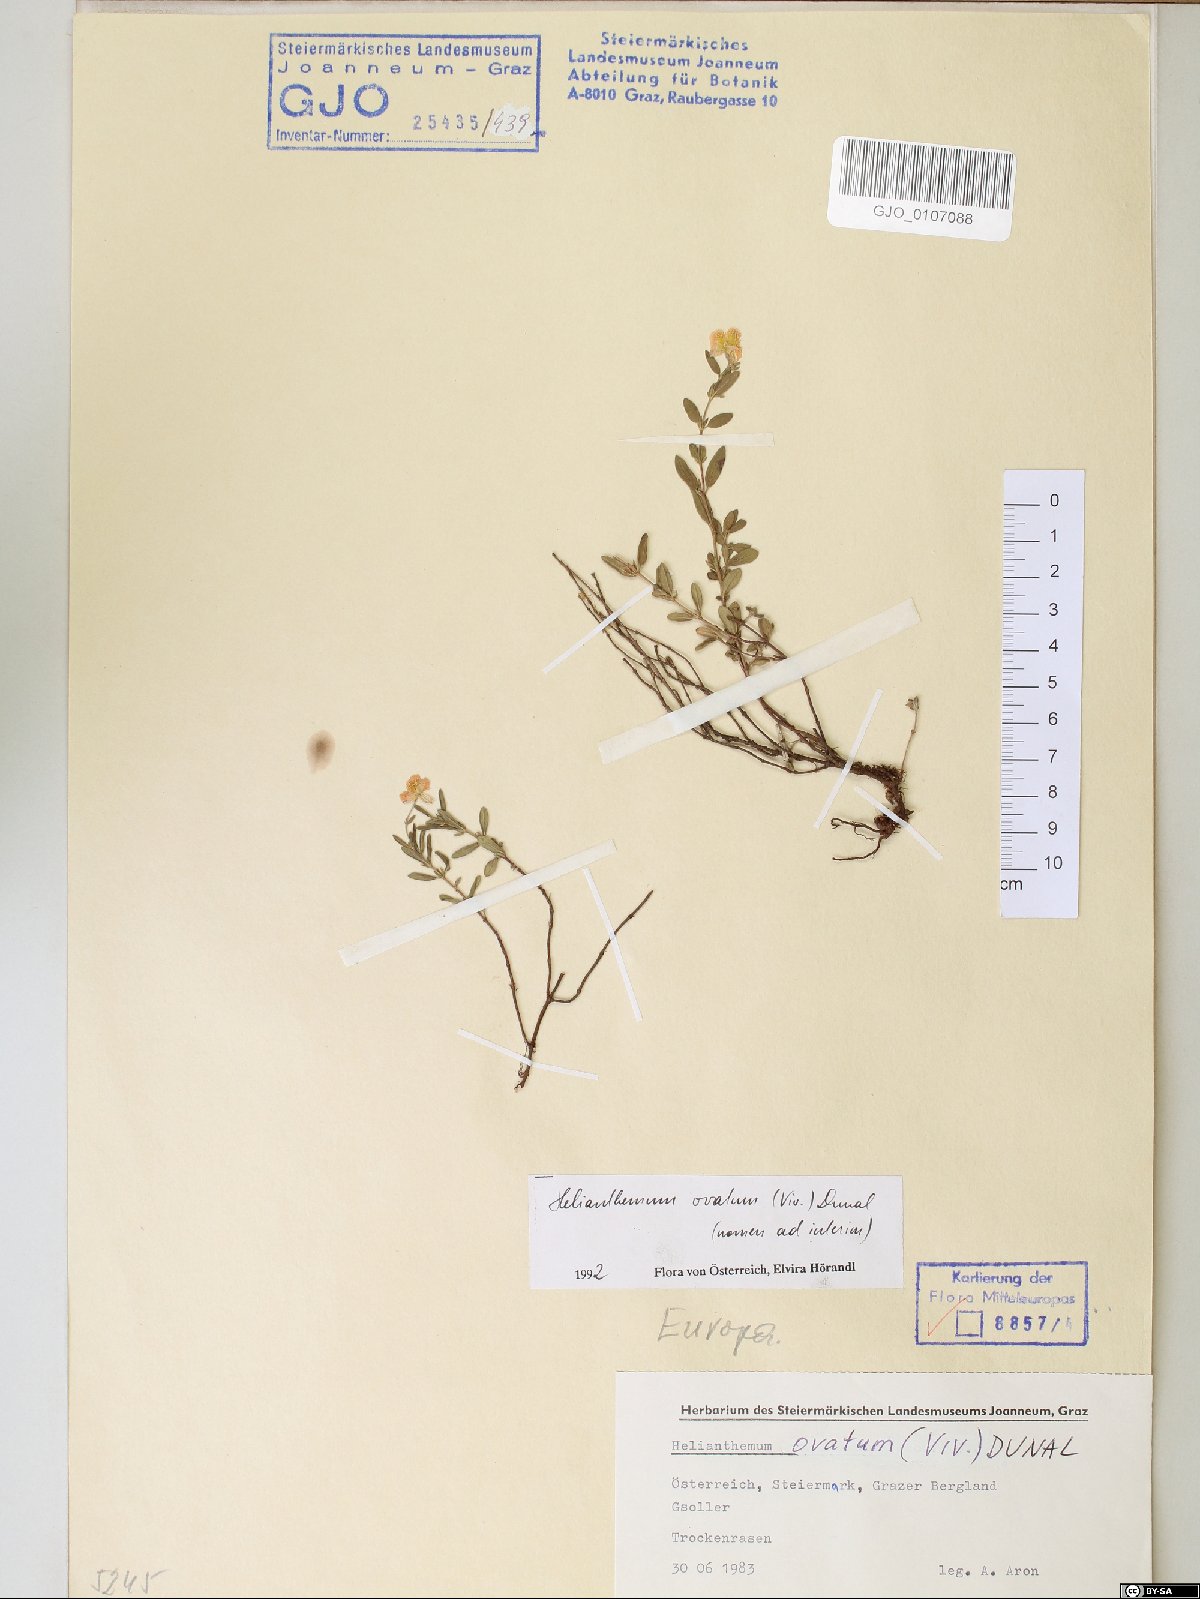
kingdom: Plantae
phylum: Tracheophyta
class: Magnoliopsida
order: Malvales
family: Cistaceae
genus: Helianthemum
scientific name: Helianthemum nummularium
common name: Common rock-rose
